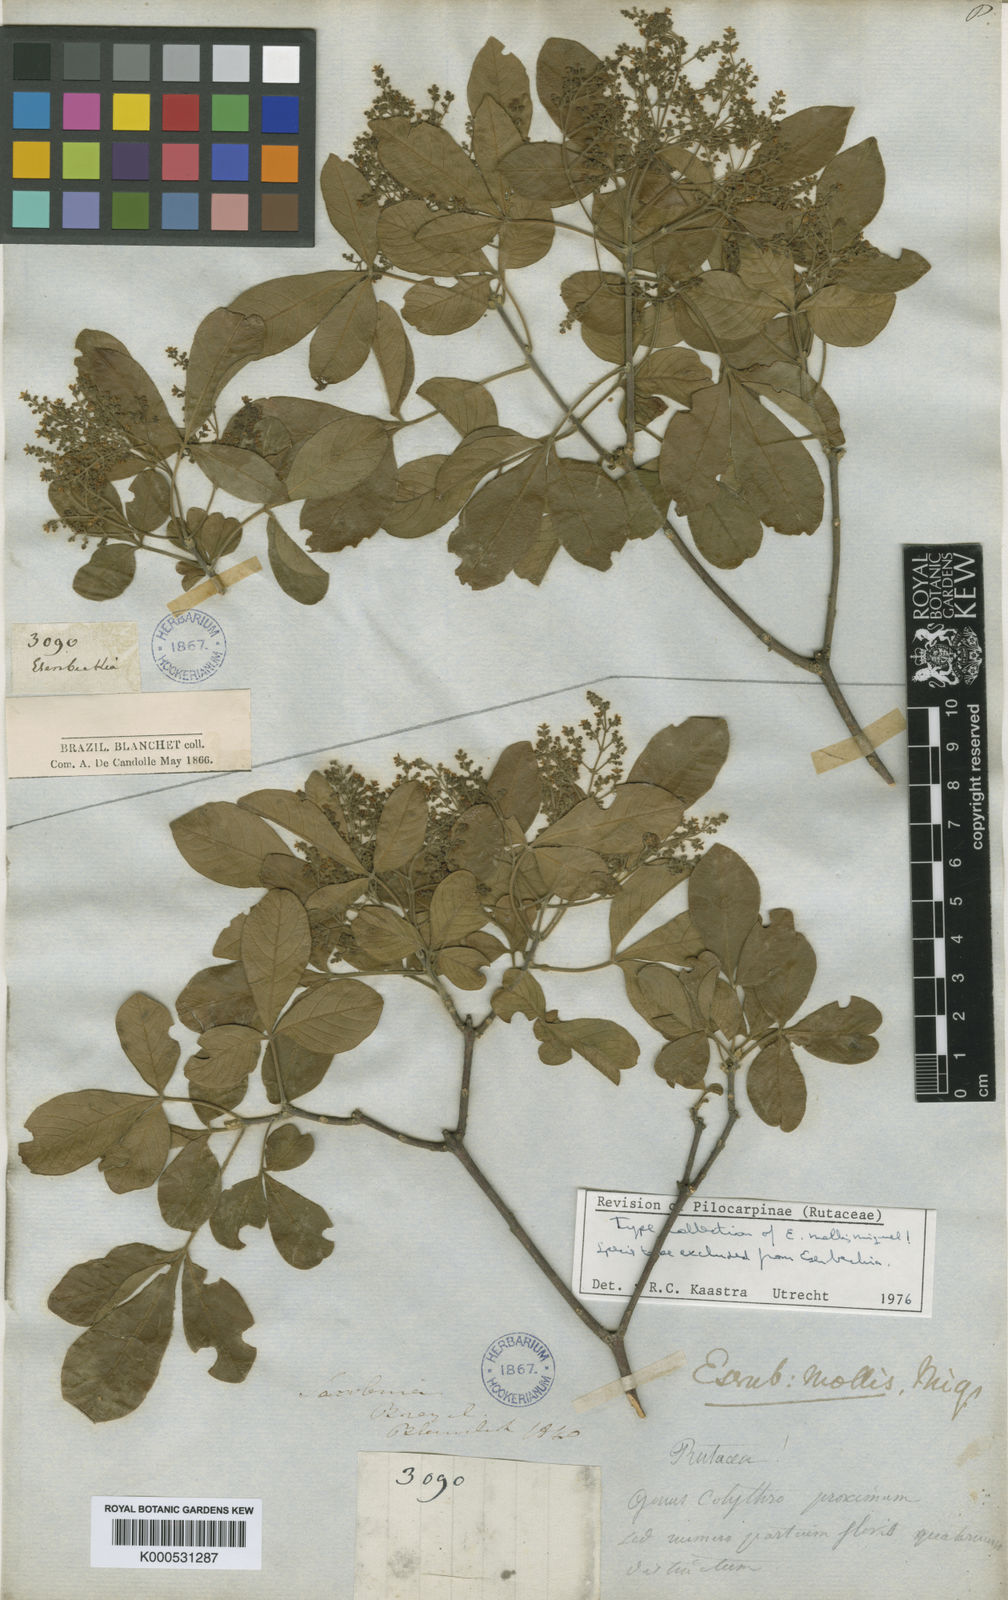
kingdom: Plantae
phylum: Tracheophyta
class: Magnoliopsida
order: Sapindales
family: Rutaceae
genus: Balfourodendron
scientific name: Balfourodendron molle
